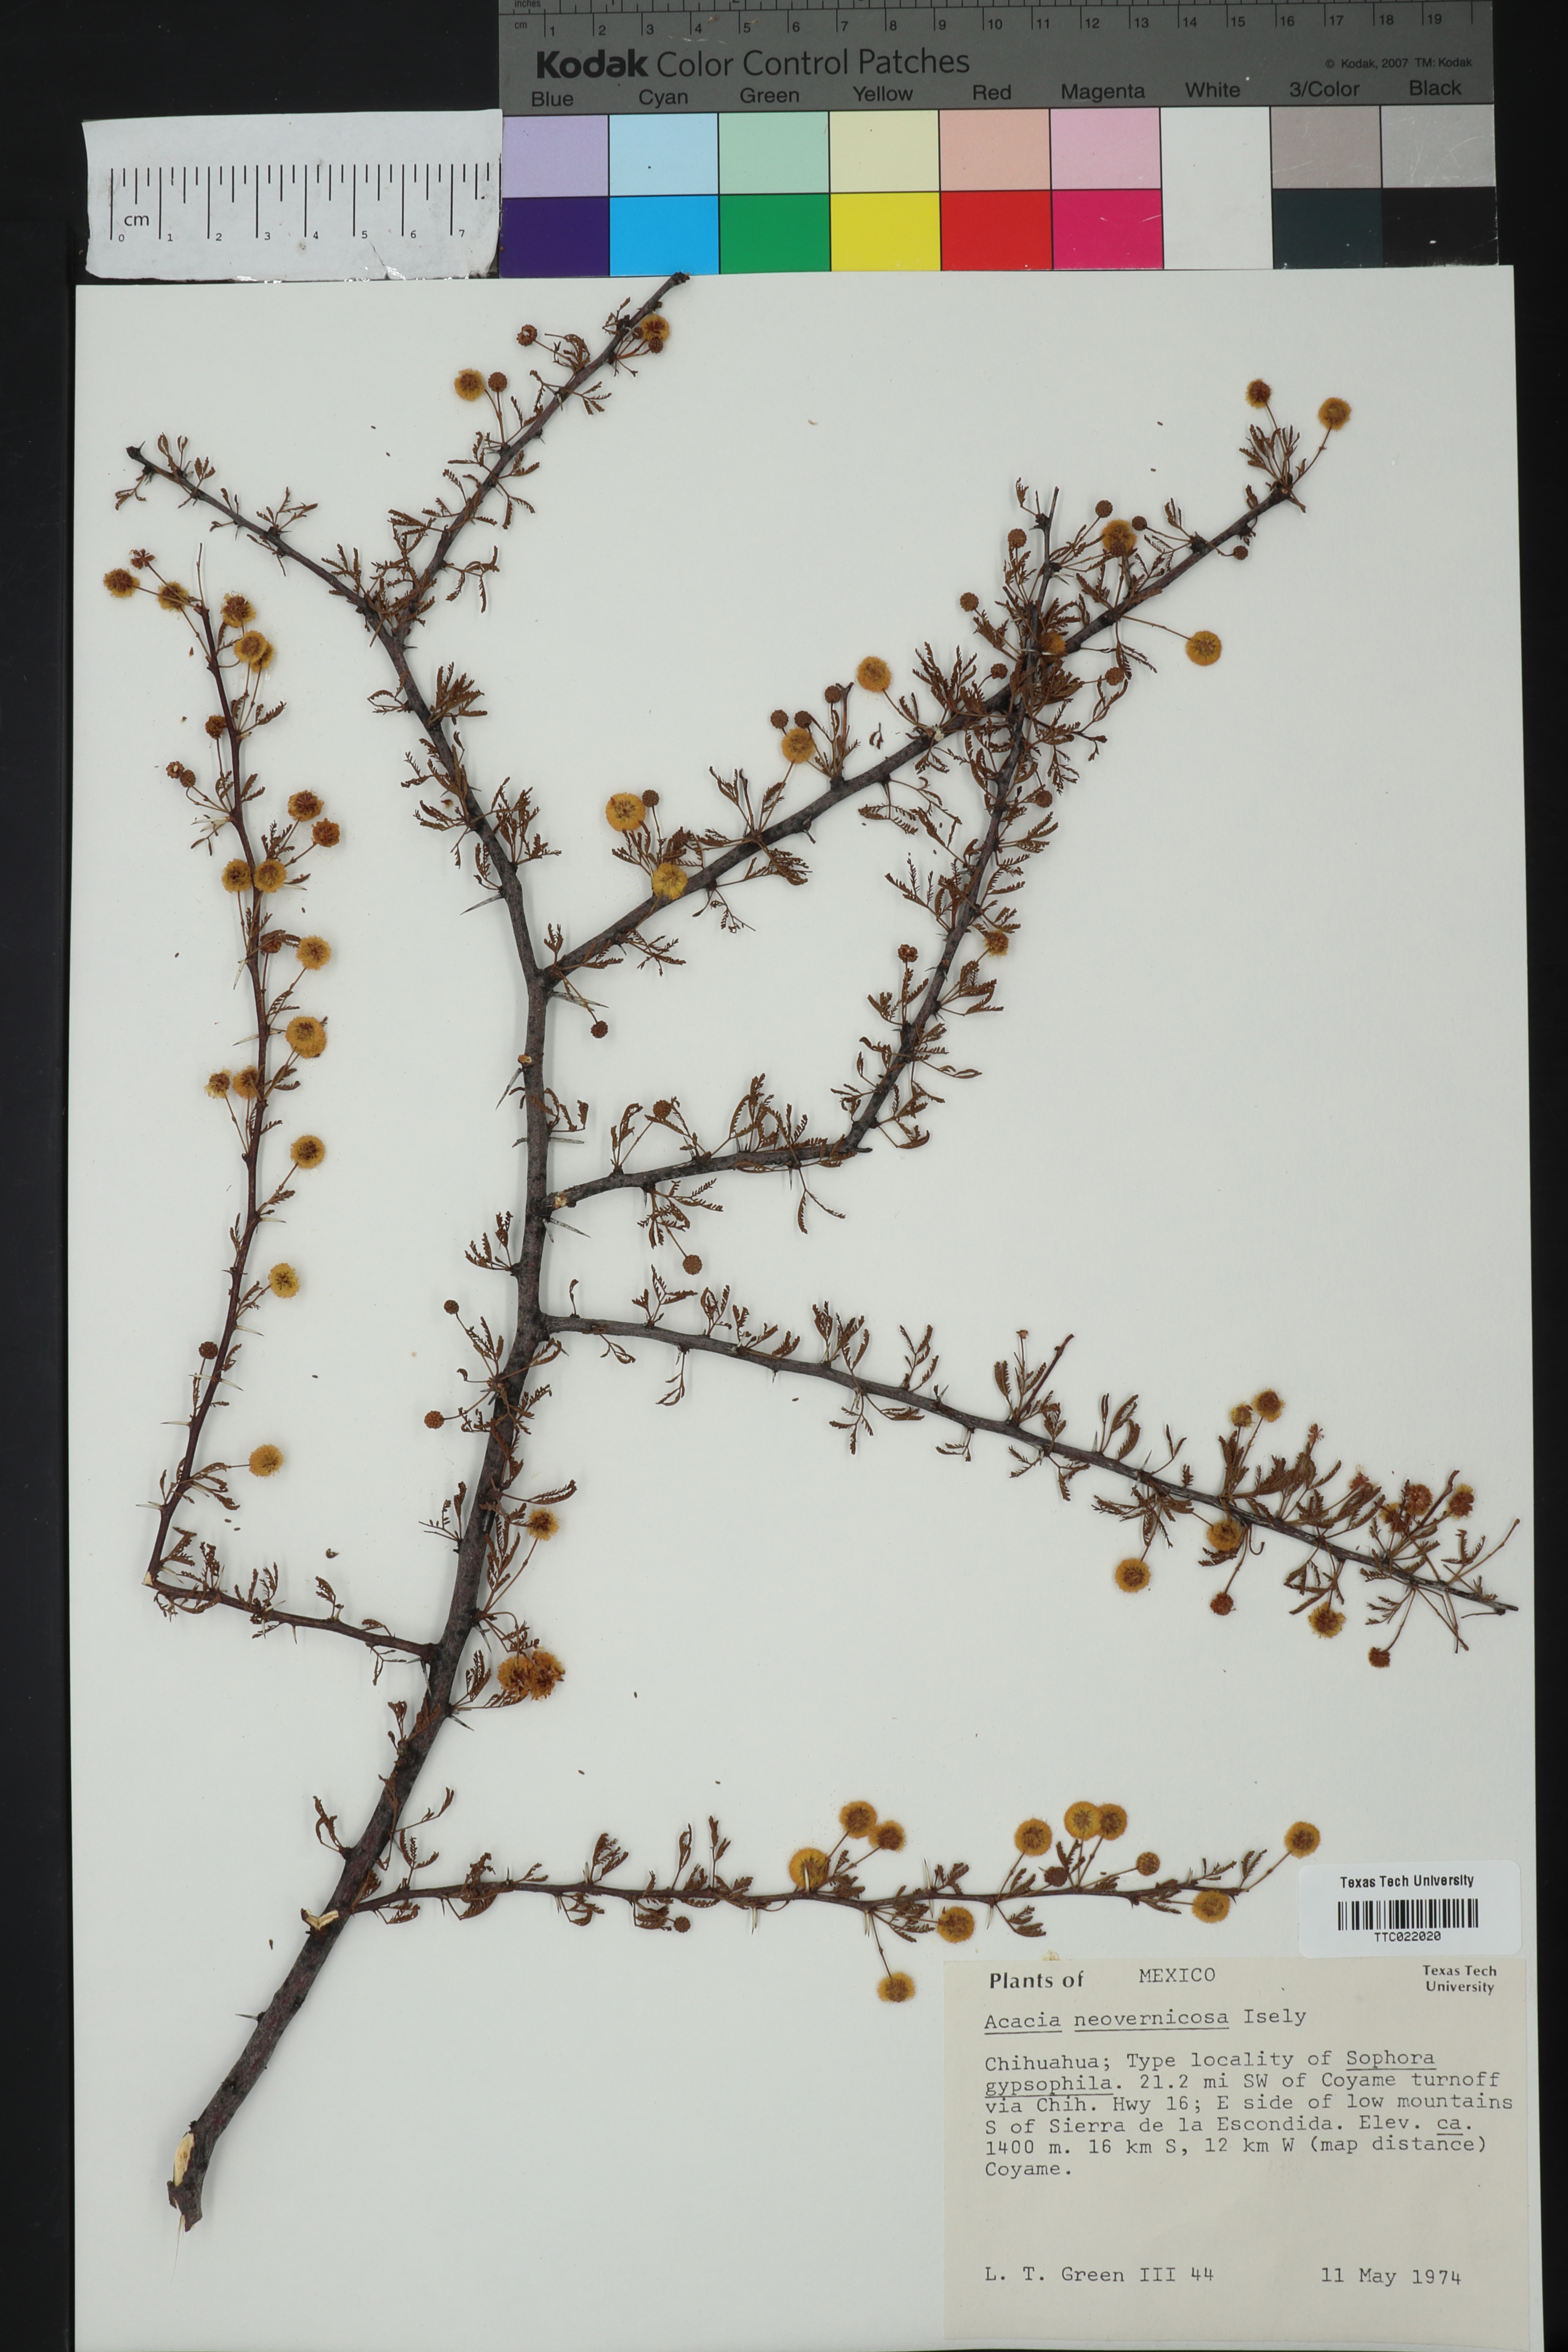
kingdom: Plantae
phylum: Tracheophyta
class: Magnoliopsida
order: Fabales
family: Fabaceae
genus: Vachellia
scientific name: Vachellia vernicosa
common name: Viscid acacia
